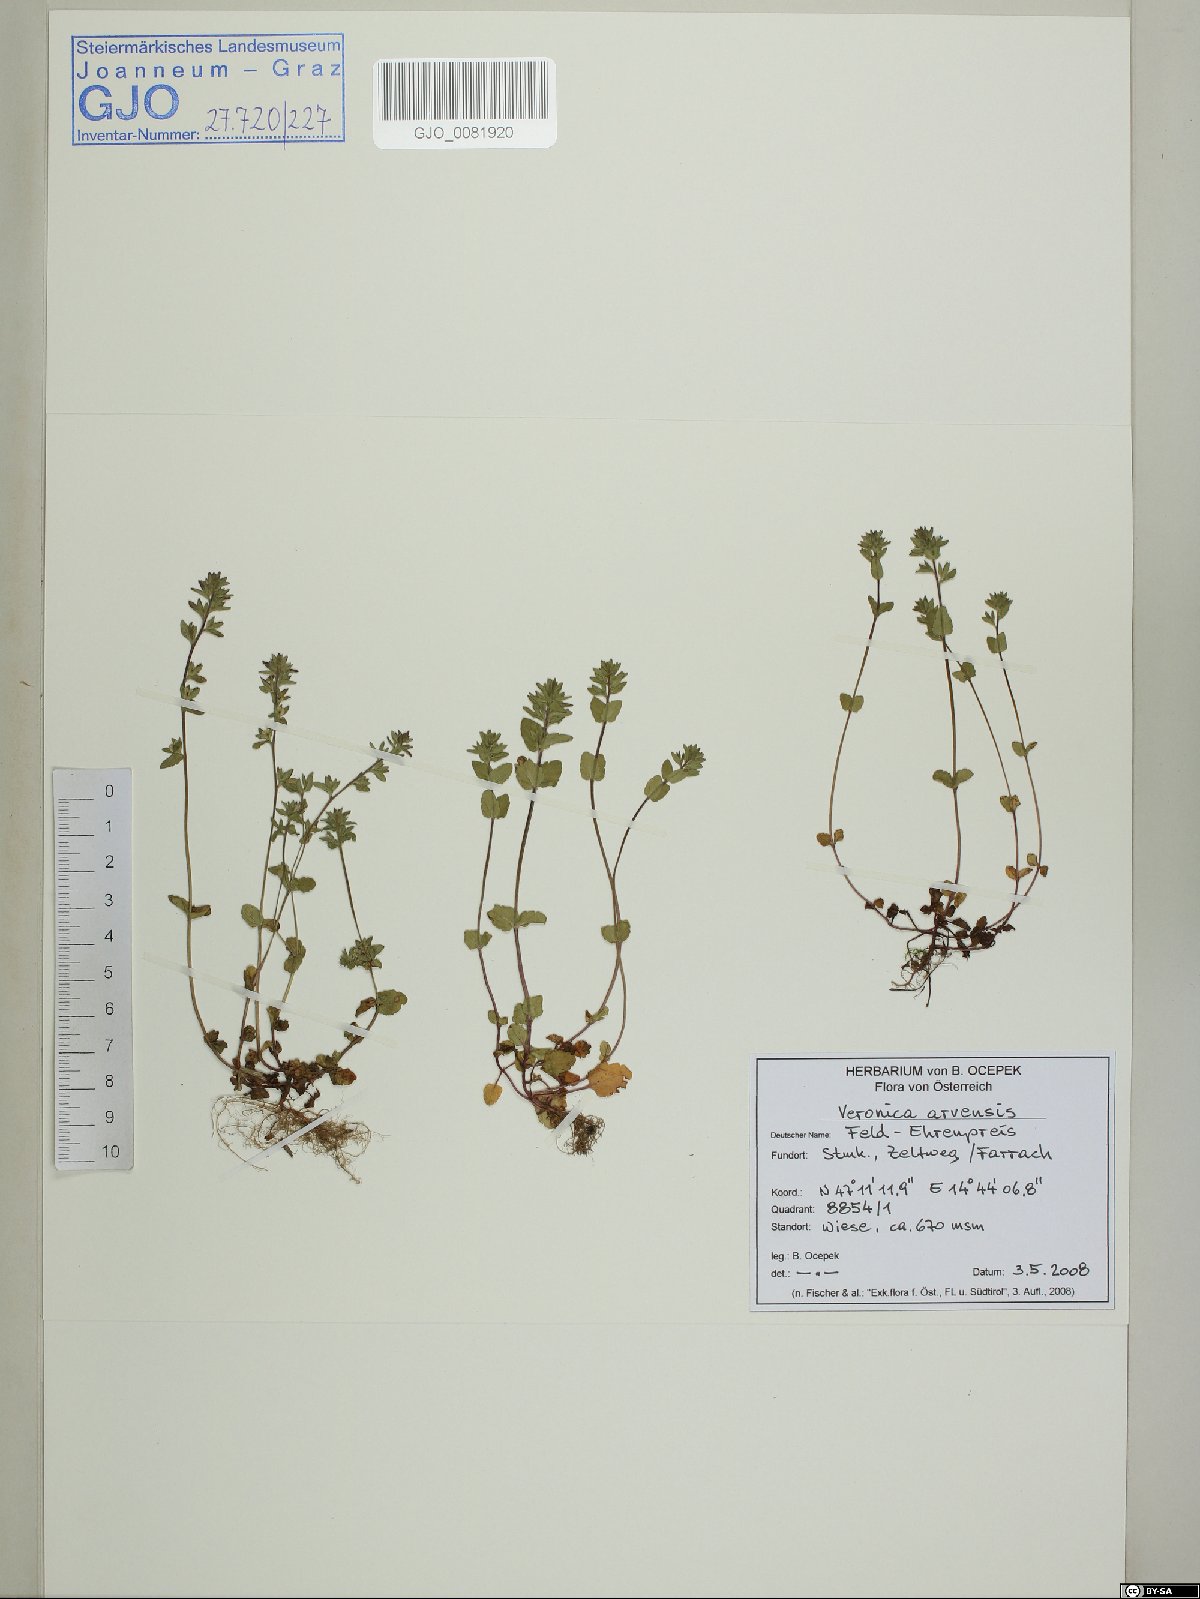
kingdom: Plantae
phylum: Tracheophyta
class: Magnoliopsida
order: Lamiales
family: Plantaginaceae
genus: Veronica
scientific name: Veronica arvensis
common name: Corn speedwell
